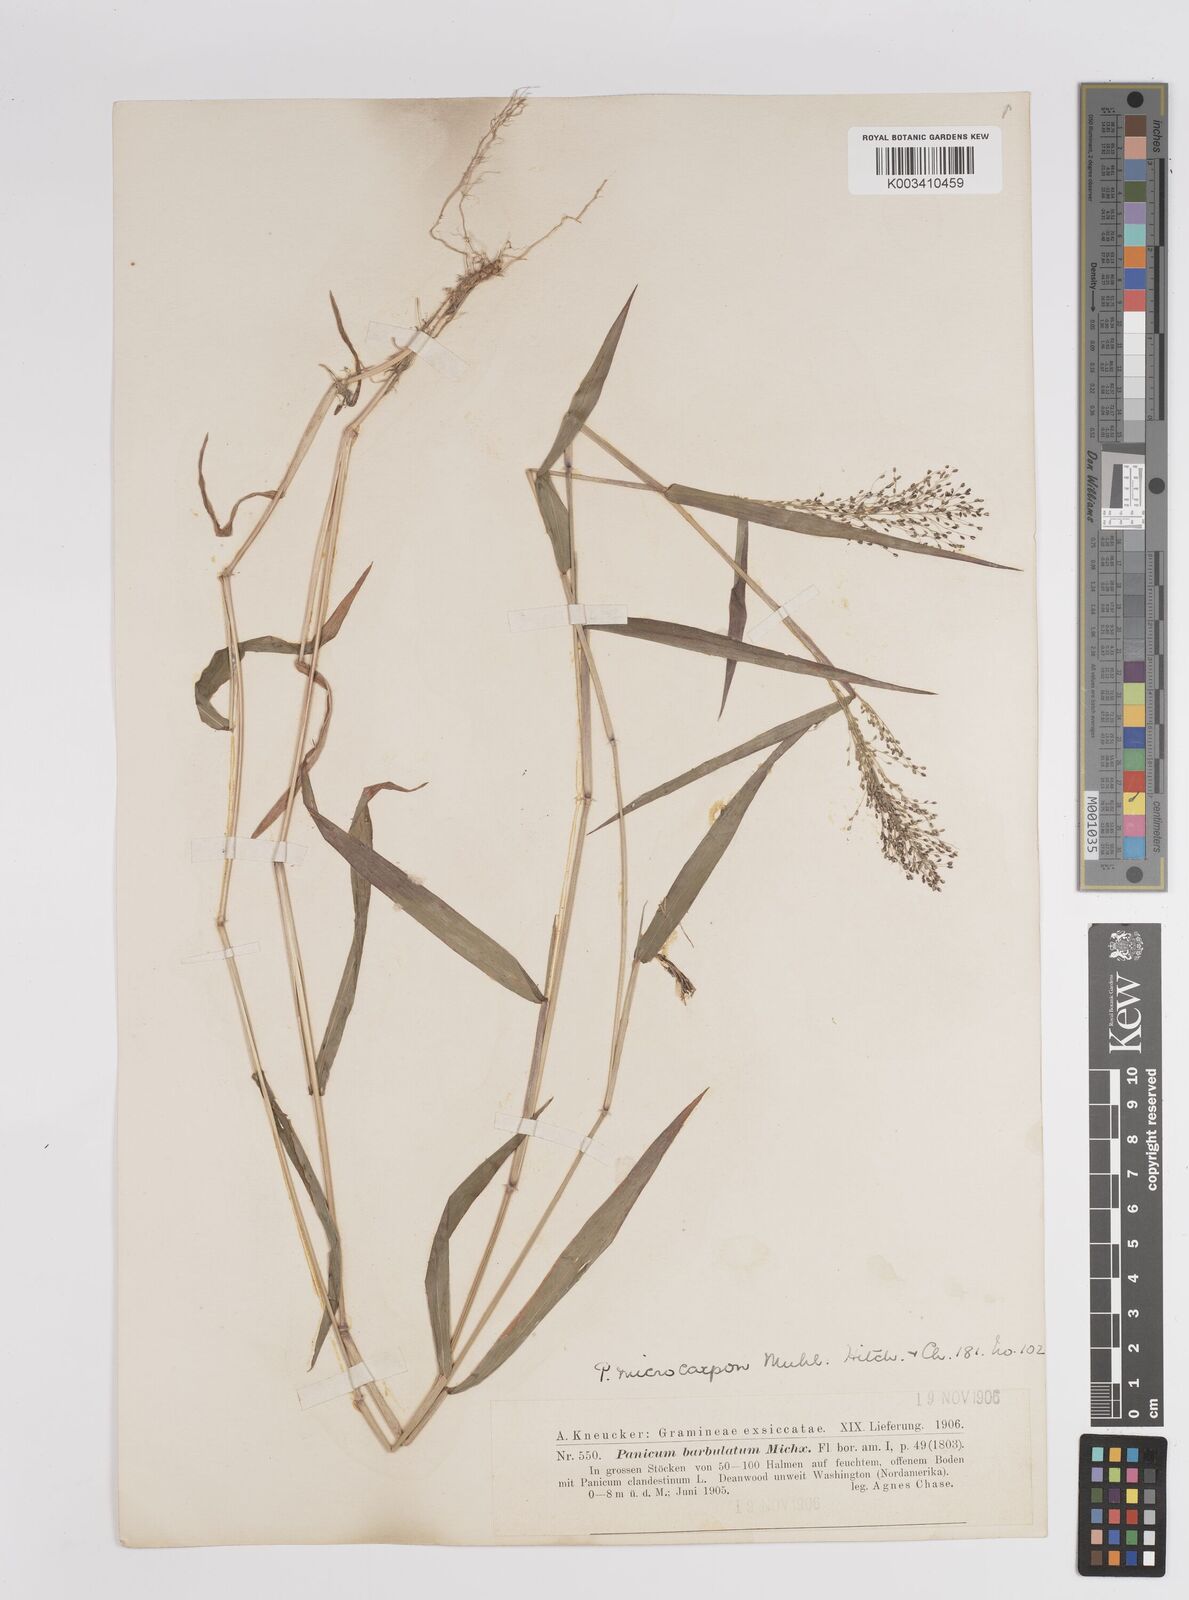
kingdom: Plantae
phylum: Tracheophyta
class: Liliopsida
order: Poales
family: Poaceae
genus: Dichanthelium
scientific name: Dichanthelium polyanthes
